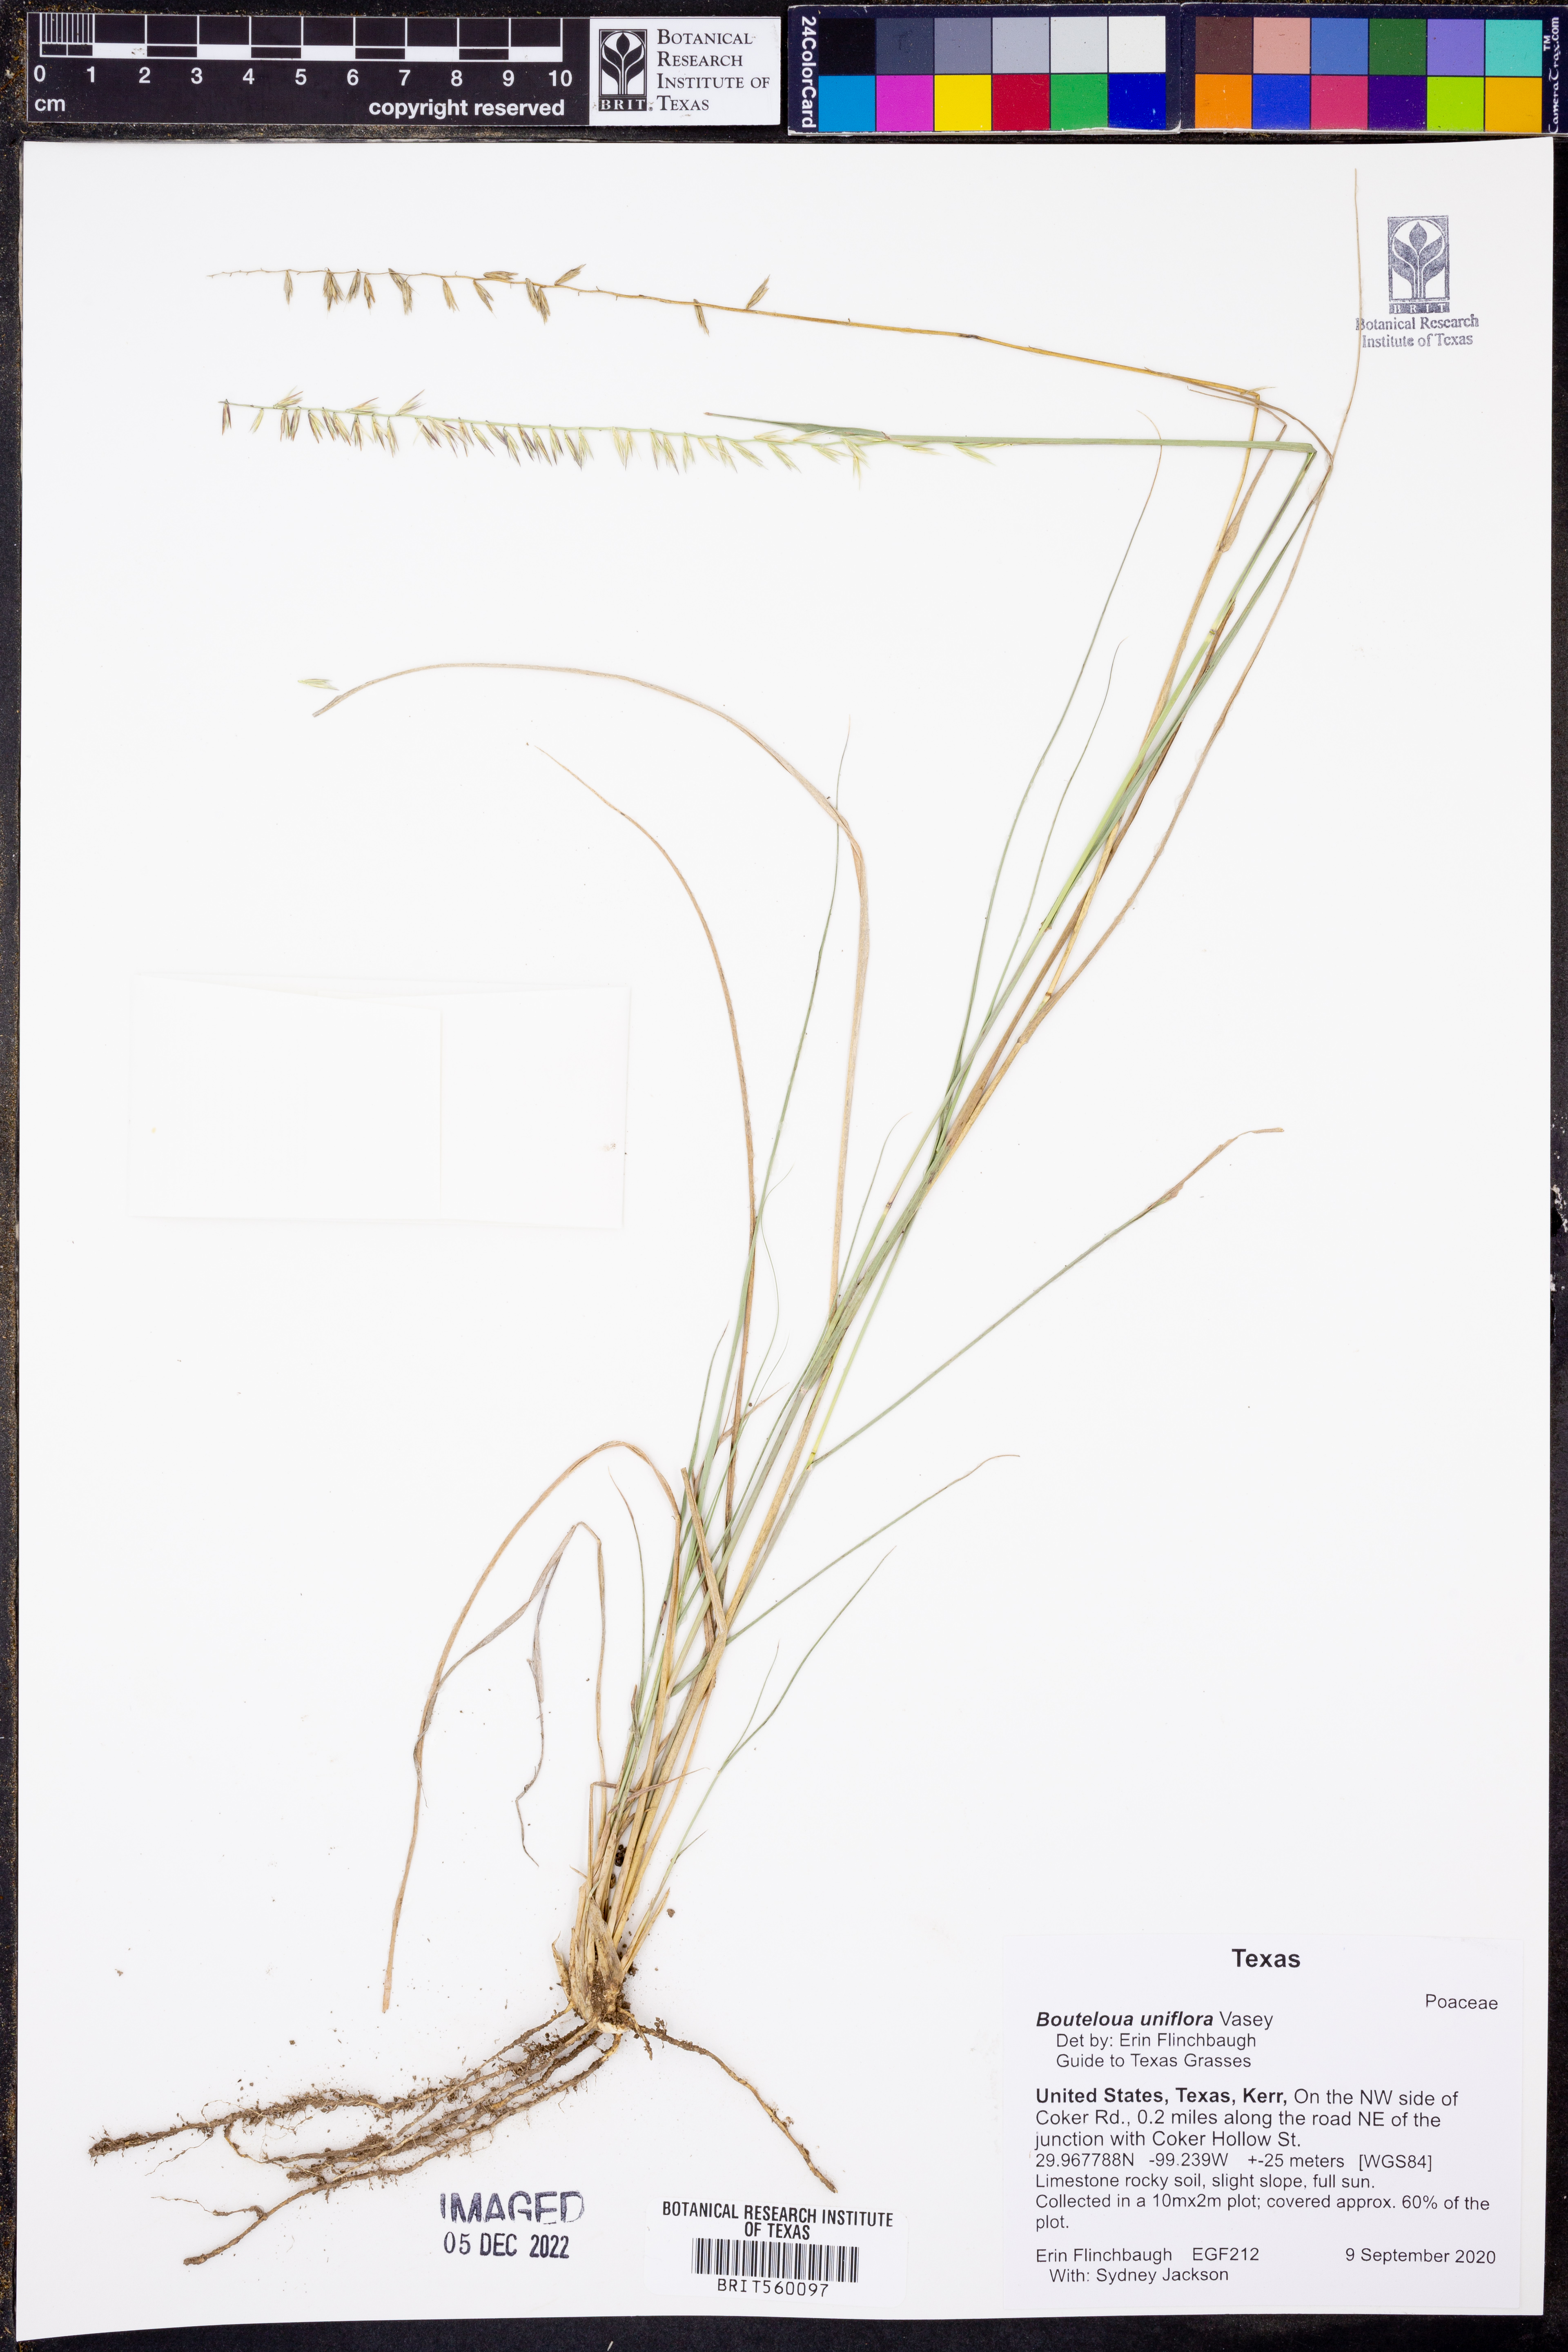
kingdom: Plantae
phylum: Tracheophyta
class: Liliopsida
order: Poales
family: Poaceae
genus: Bouteloua
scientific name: Bouteloua uniflora
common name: Neally's grama
